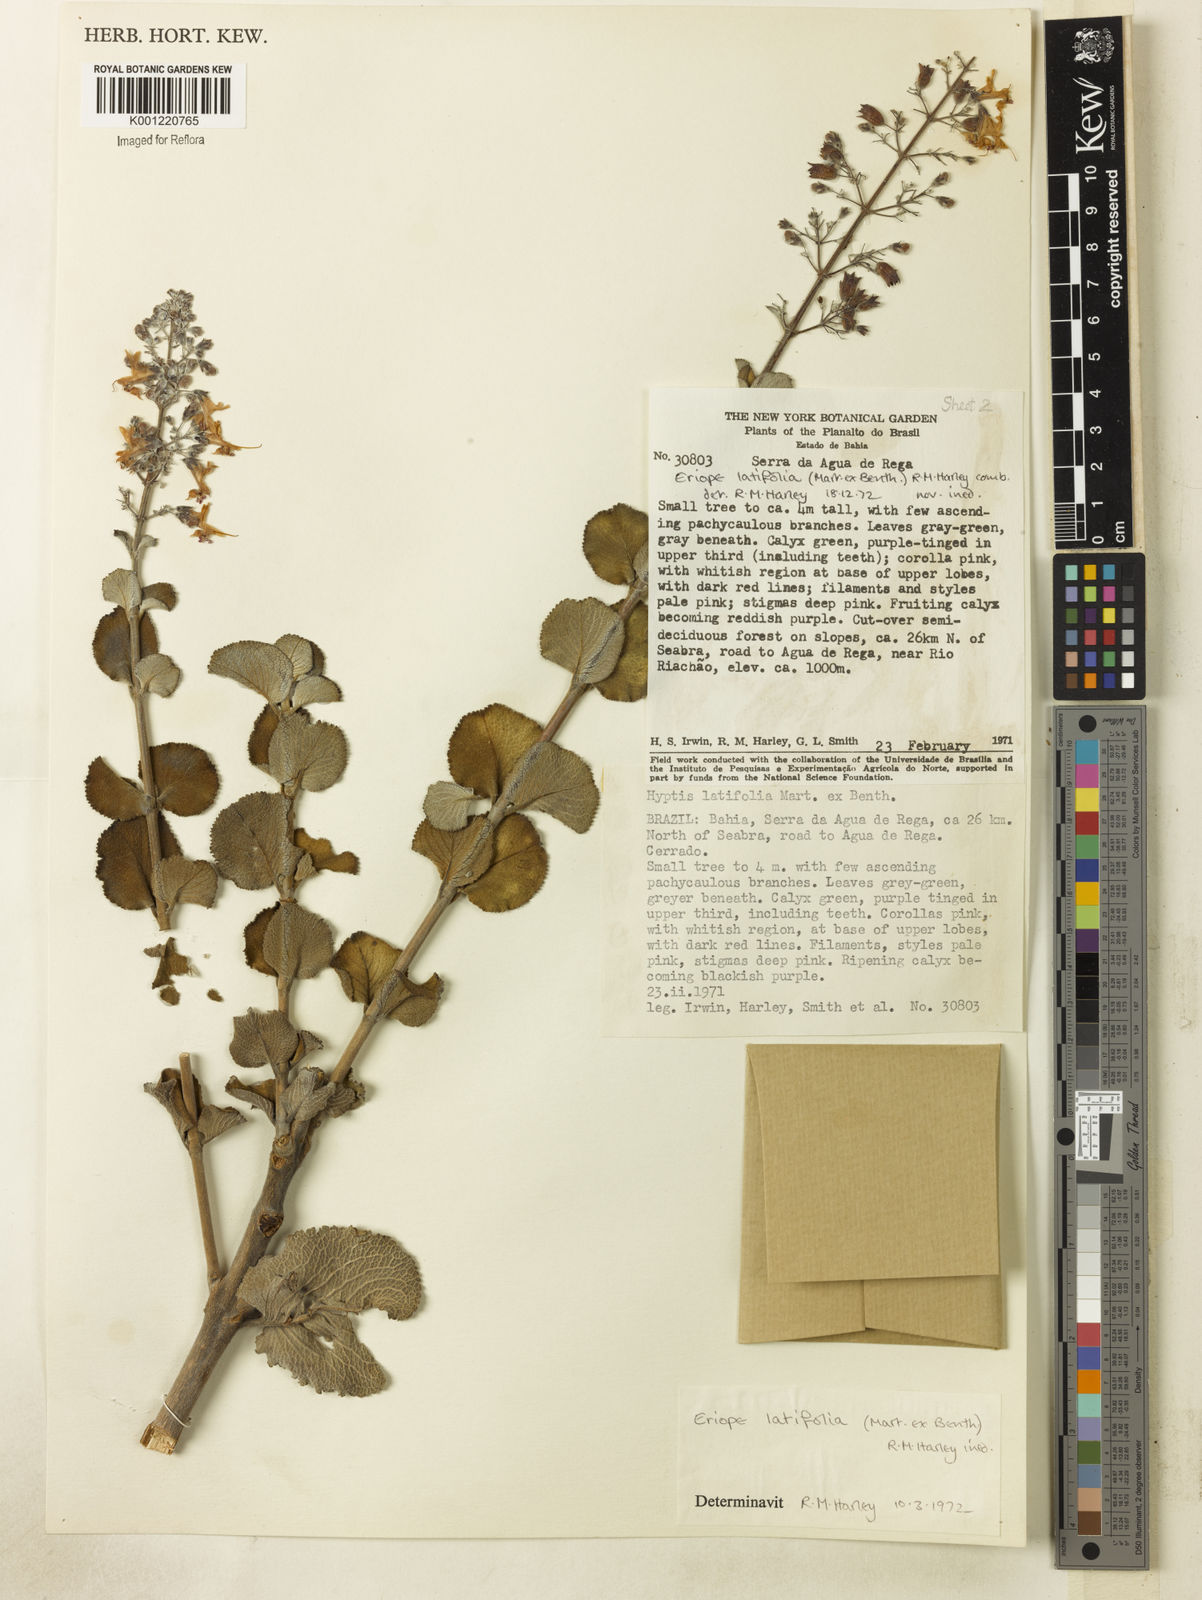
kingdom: Plantae
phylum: Tracheophyta
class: Magnoliopsida
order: Lamiales
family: Lamiaceae
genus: Eriope
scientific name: Eriope latifolia
